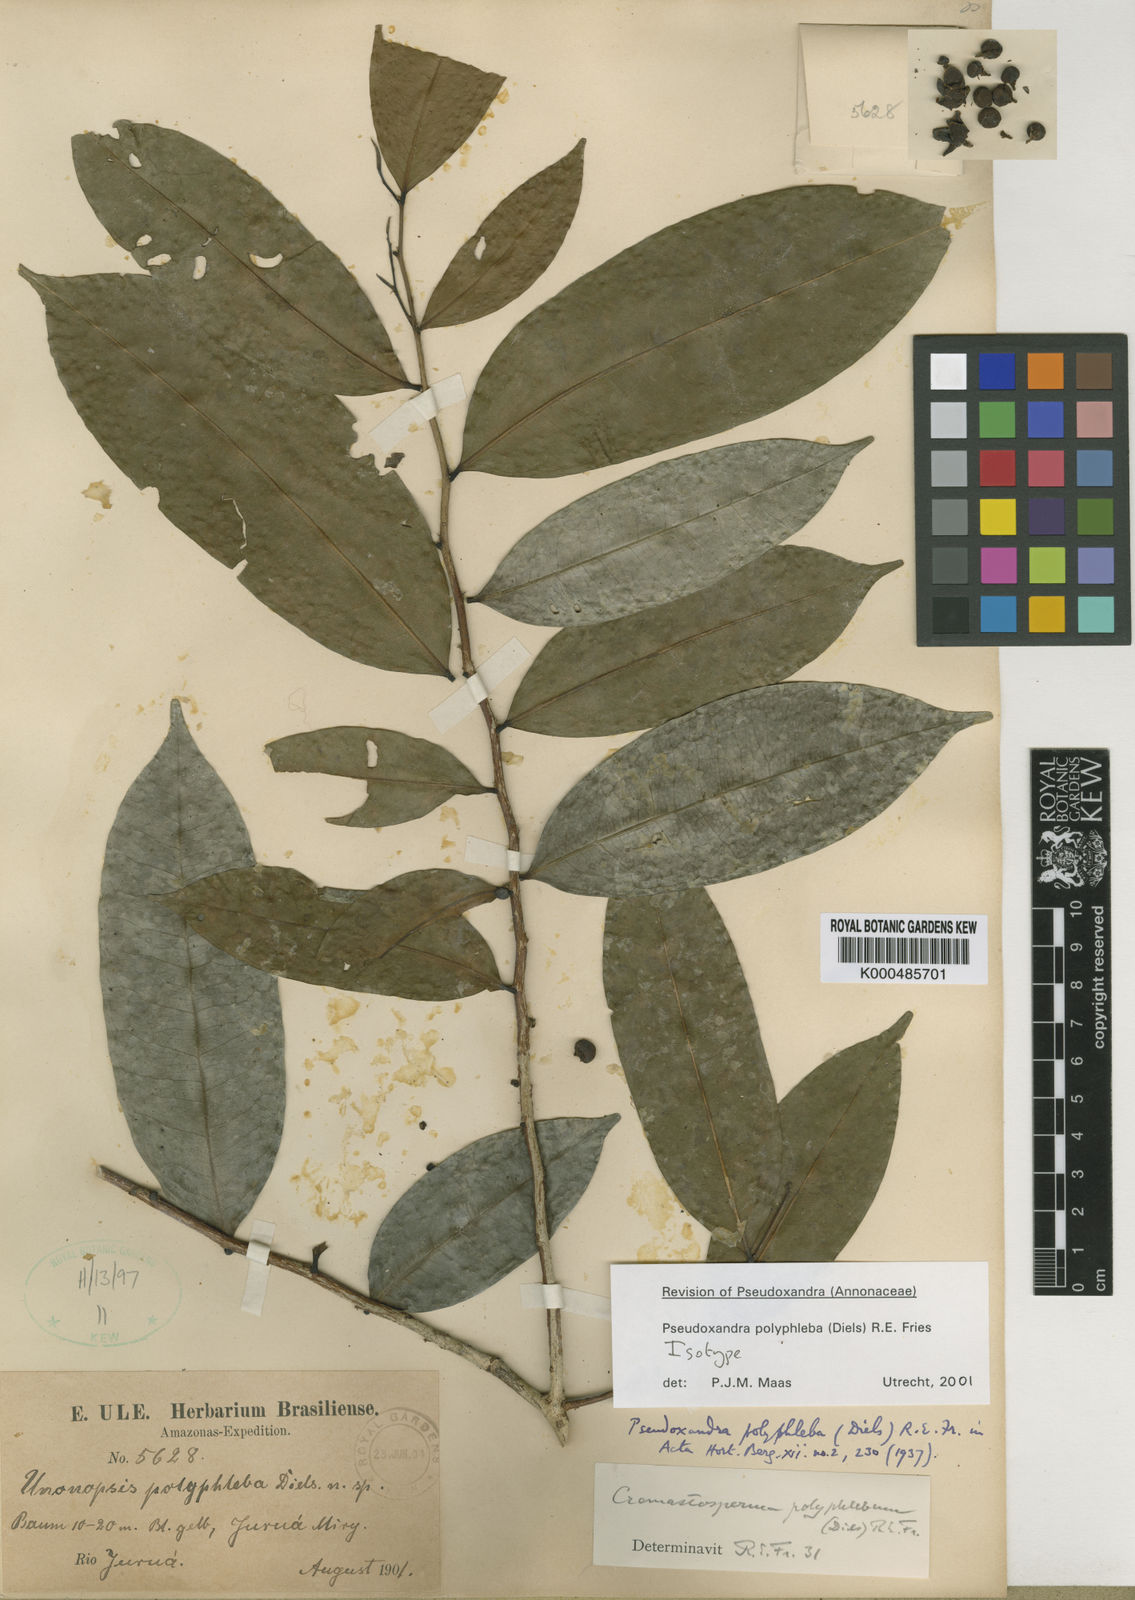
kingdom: Plantae
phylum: Tracheophyta
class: Magnoliopsida
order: Magnoliales
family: Annonaceae
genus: Pseudoxandra
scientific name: Pseudoxandra polyphleba
